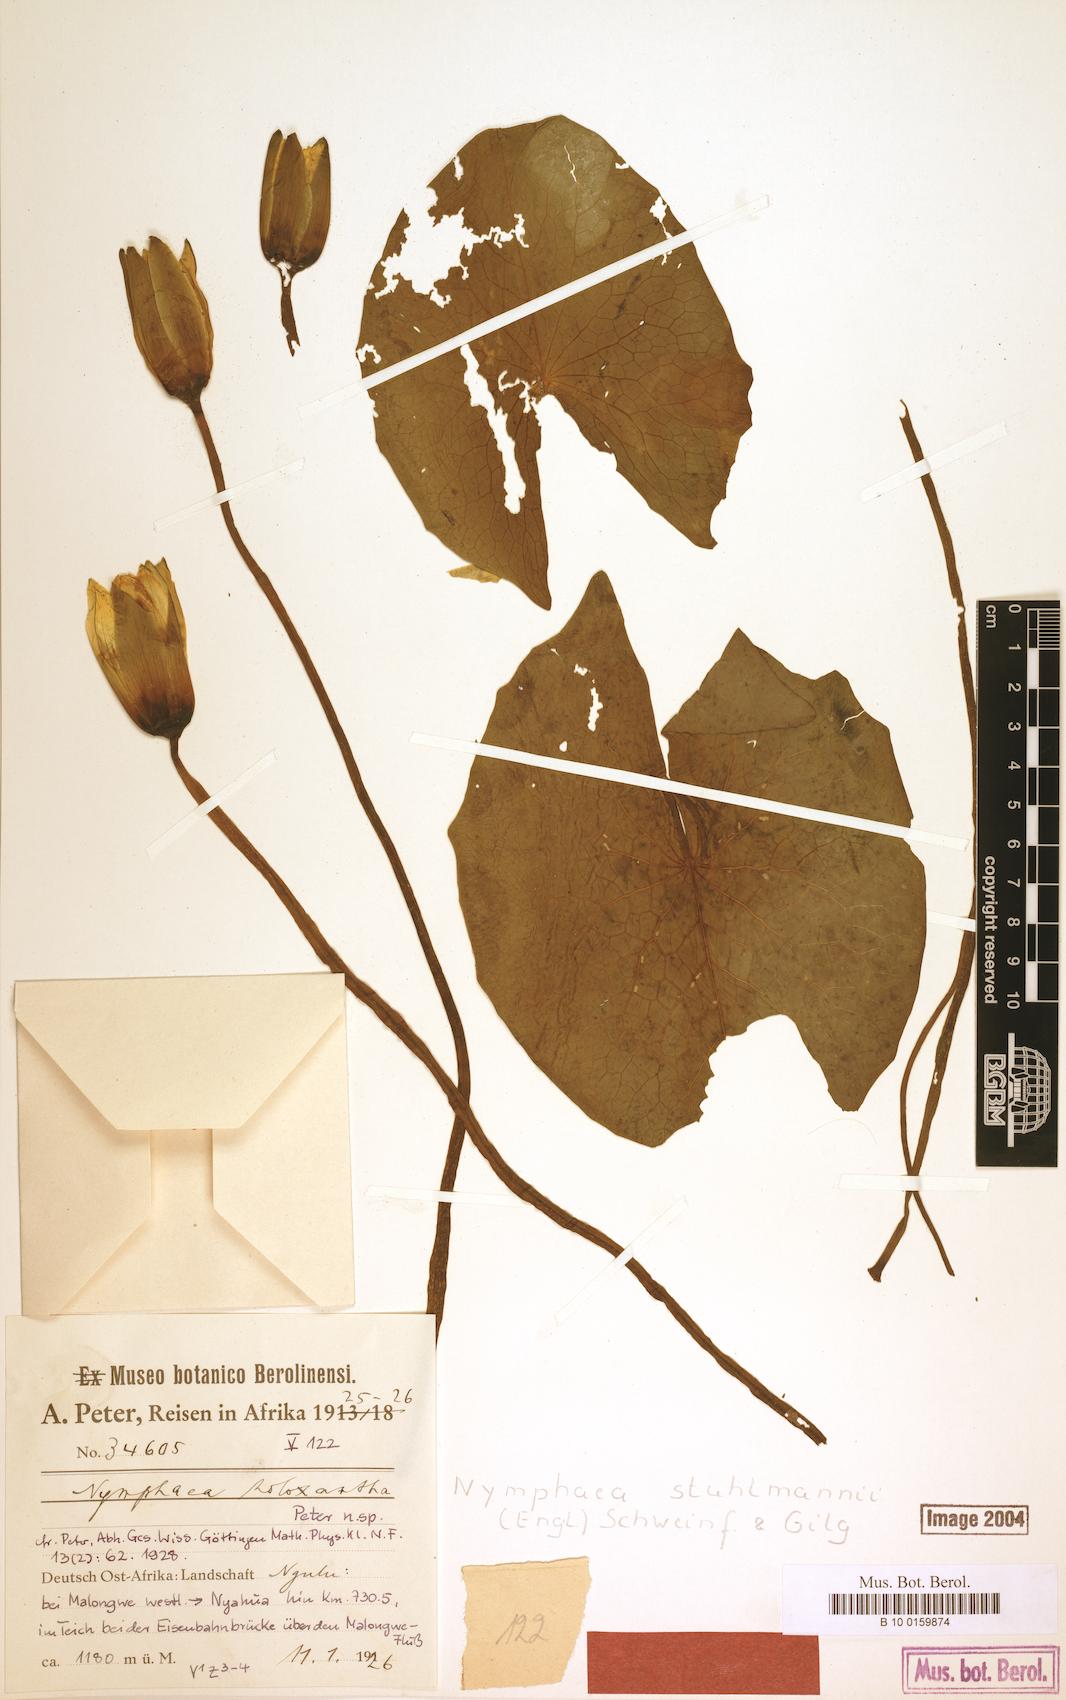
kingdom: Plantae
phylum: Tracheophyta
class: Magnoliopsida
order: Nymphaeales
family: Nymphaeaceae
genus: Nymphaea
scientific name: Nymphaea stuhlmannii
